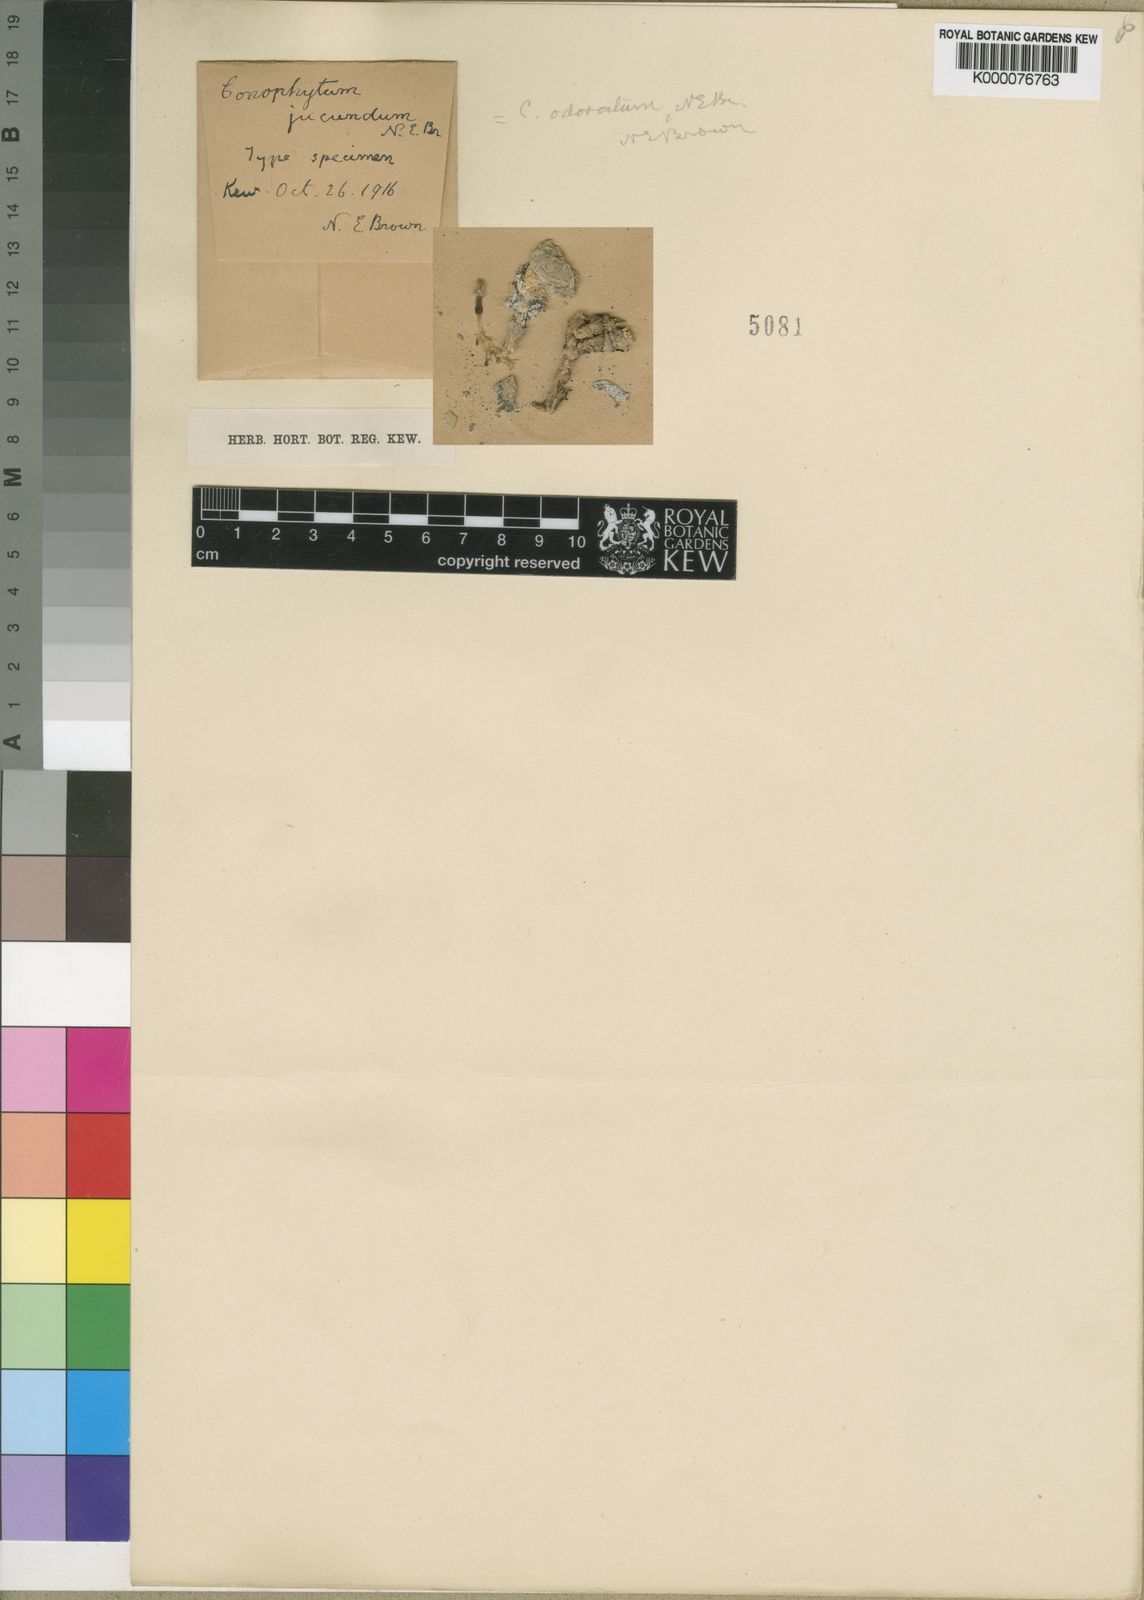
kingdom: Plantae
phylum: Tracheophyta
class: Magnoliopsida
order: Caryophyllales
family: Aizoaceae
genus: Conophytum
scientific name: Conophytum ficiforme
